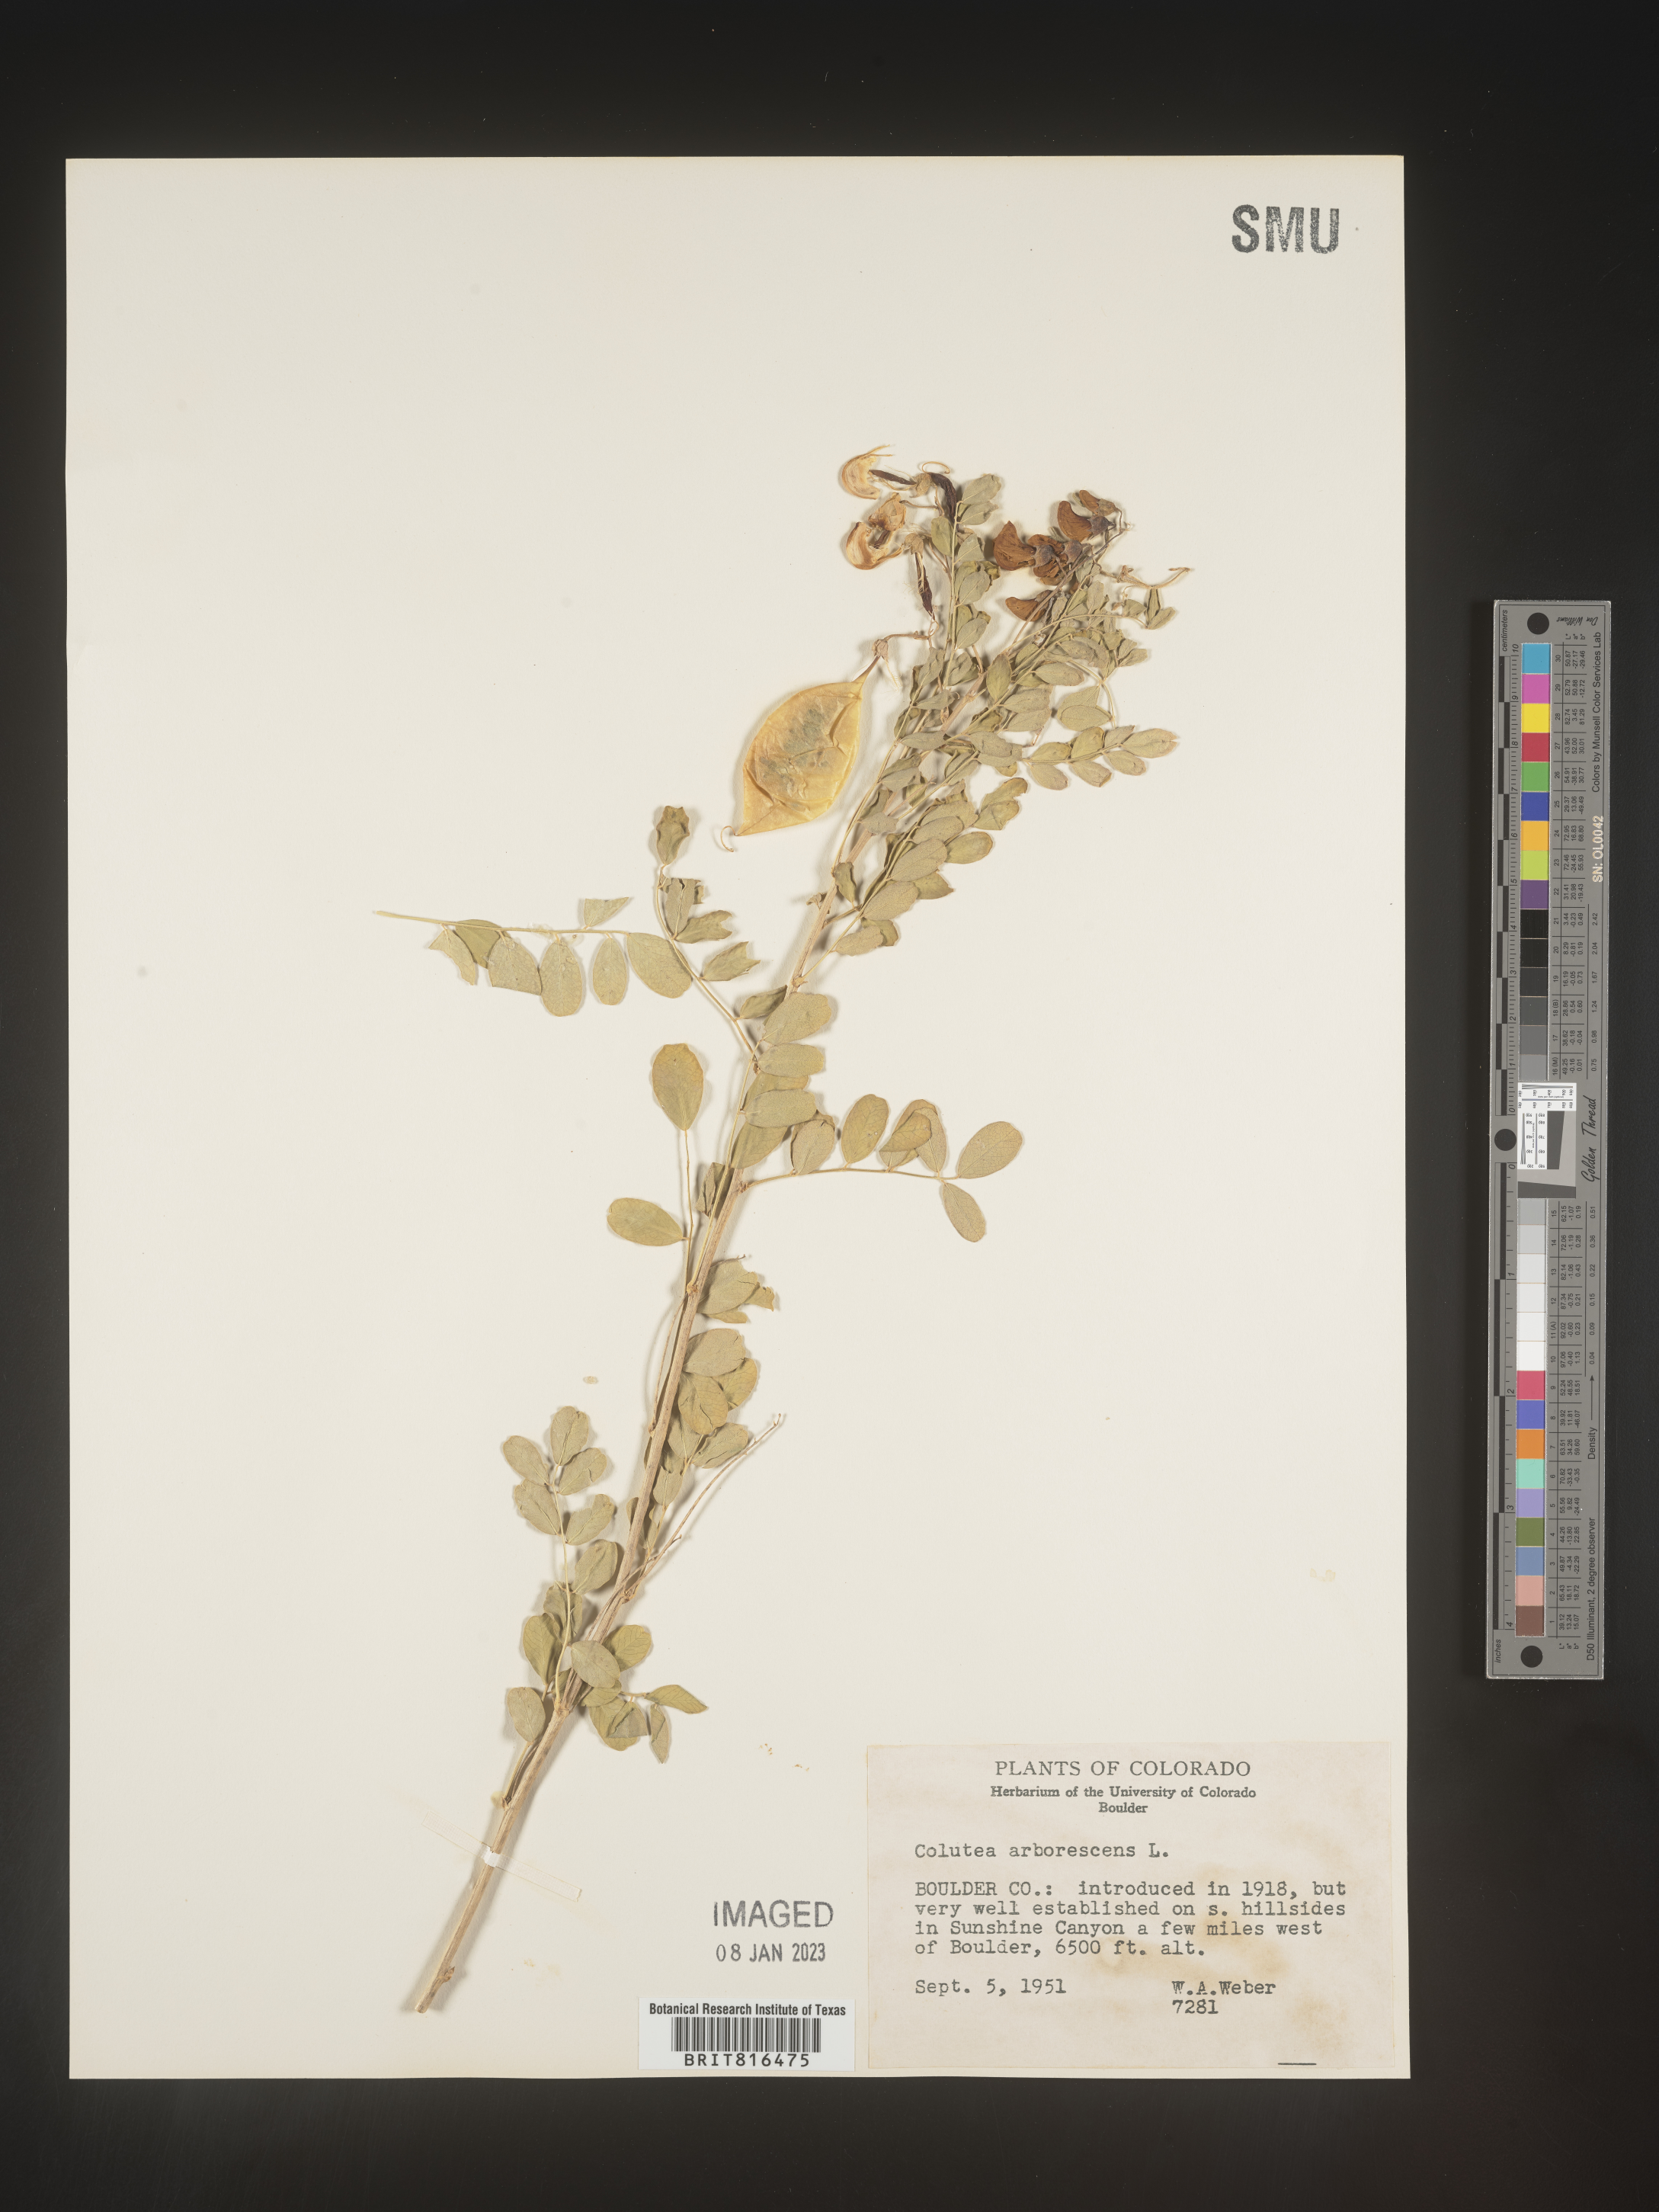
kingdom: Plantae
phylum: Tracheophyta
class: Magnoliopsida
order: Fabales
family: Fabaceae
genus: Colutea
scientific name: Colutea
